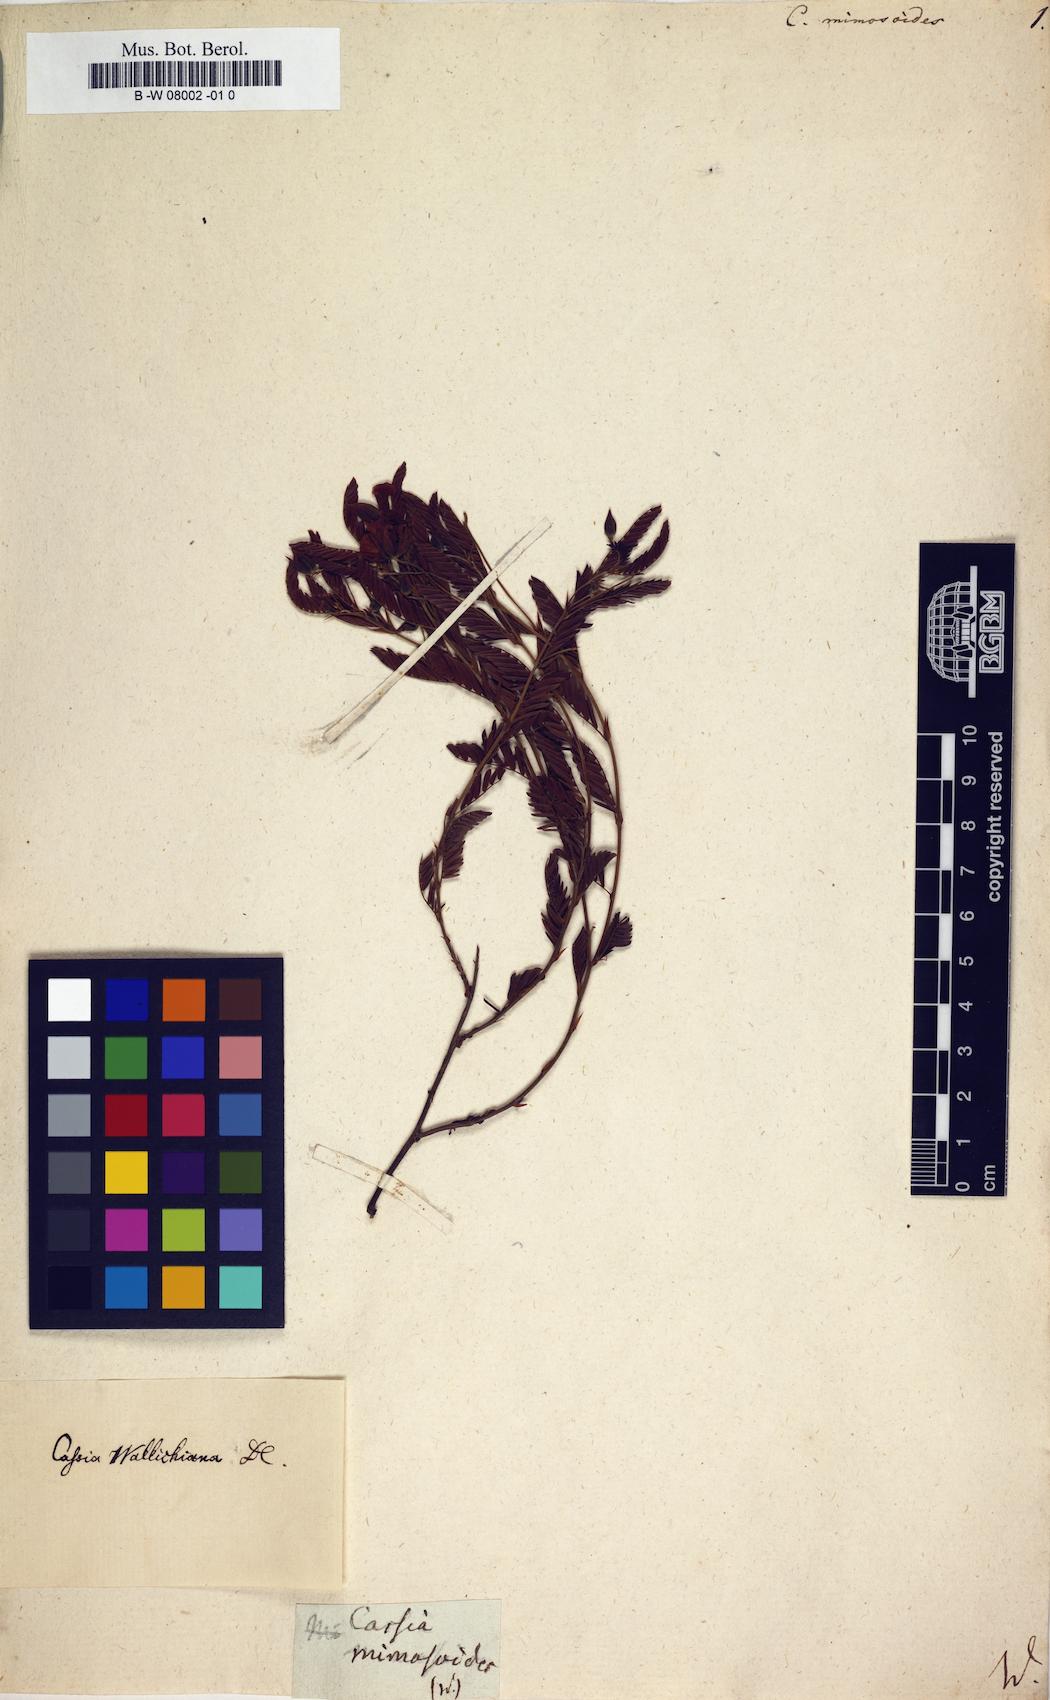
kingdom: Plantae
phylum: Tracheophyta
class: Magnoliopsida
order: Fabales
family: Fabaceae
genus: Cassia
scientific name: Cassia mimosoides
